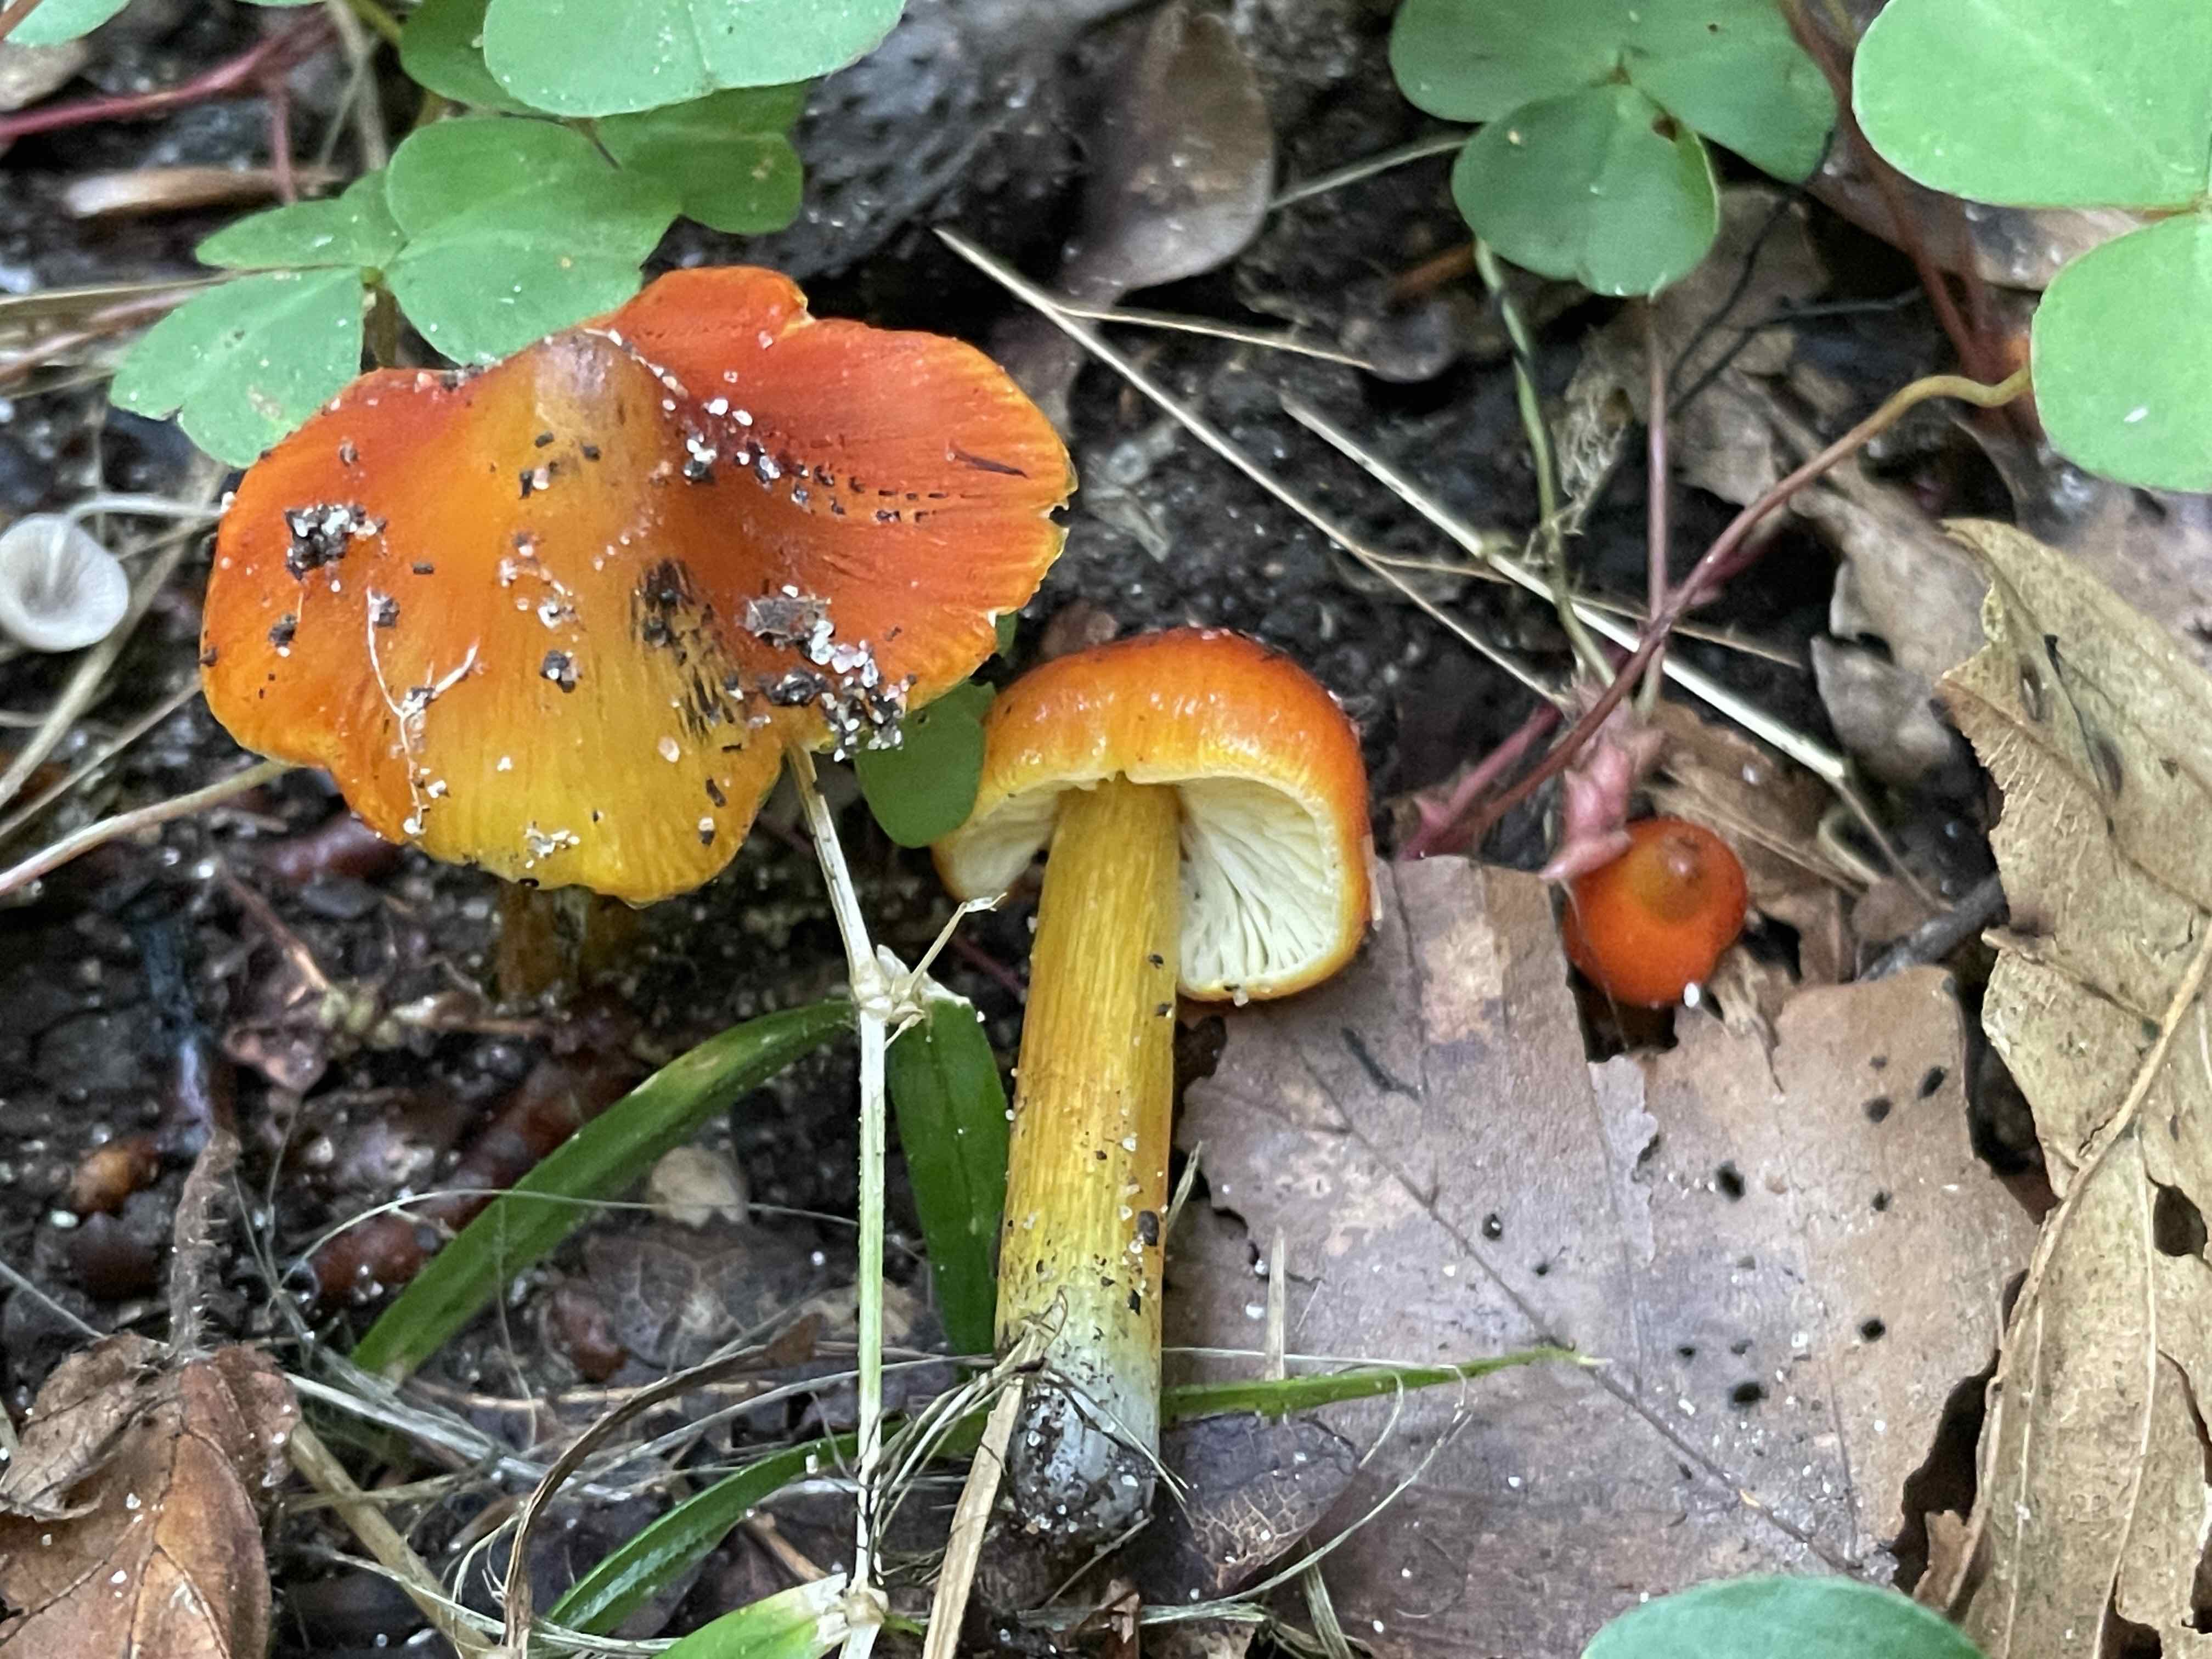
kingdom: Fungi
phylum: Basidiomycota
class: Agaricomycetes
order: Agaricales
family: Hygrophoraceae
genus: Hygrocybe
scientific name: Hygrocybe conica
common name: kegle-vokshat
